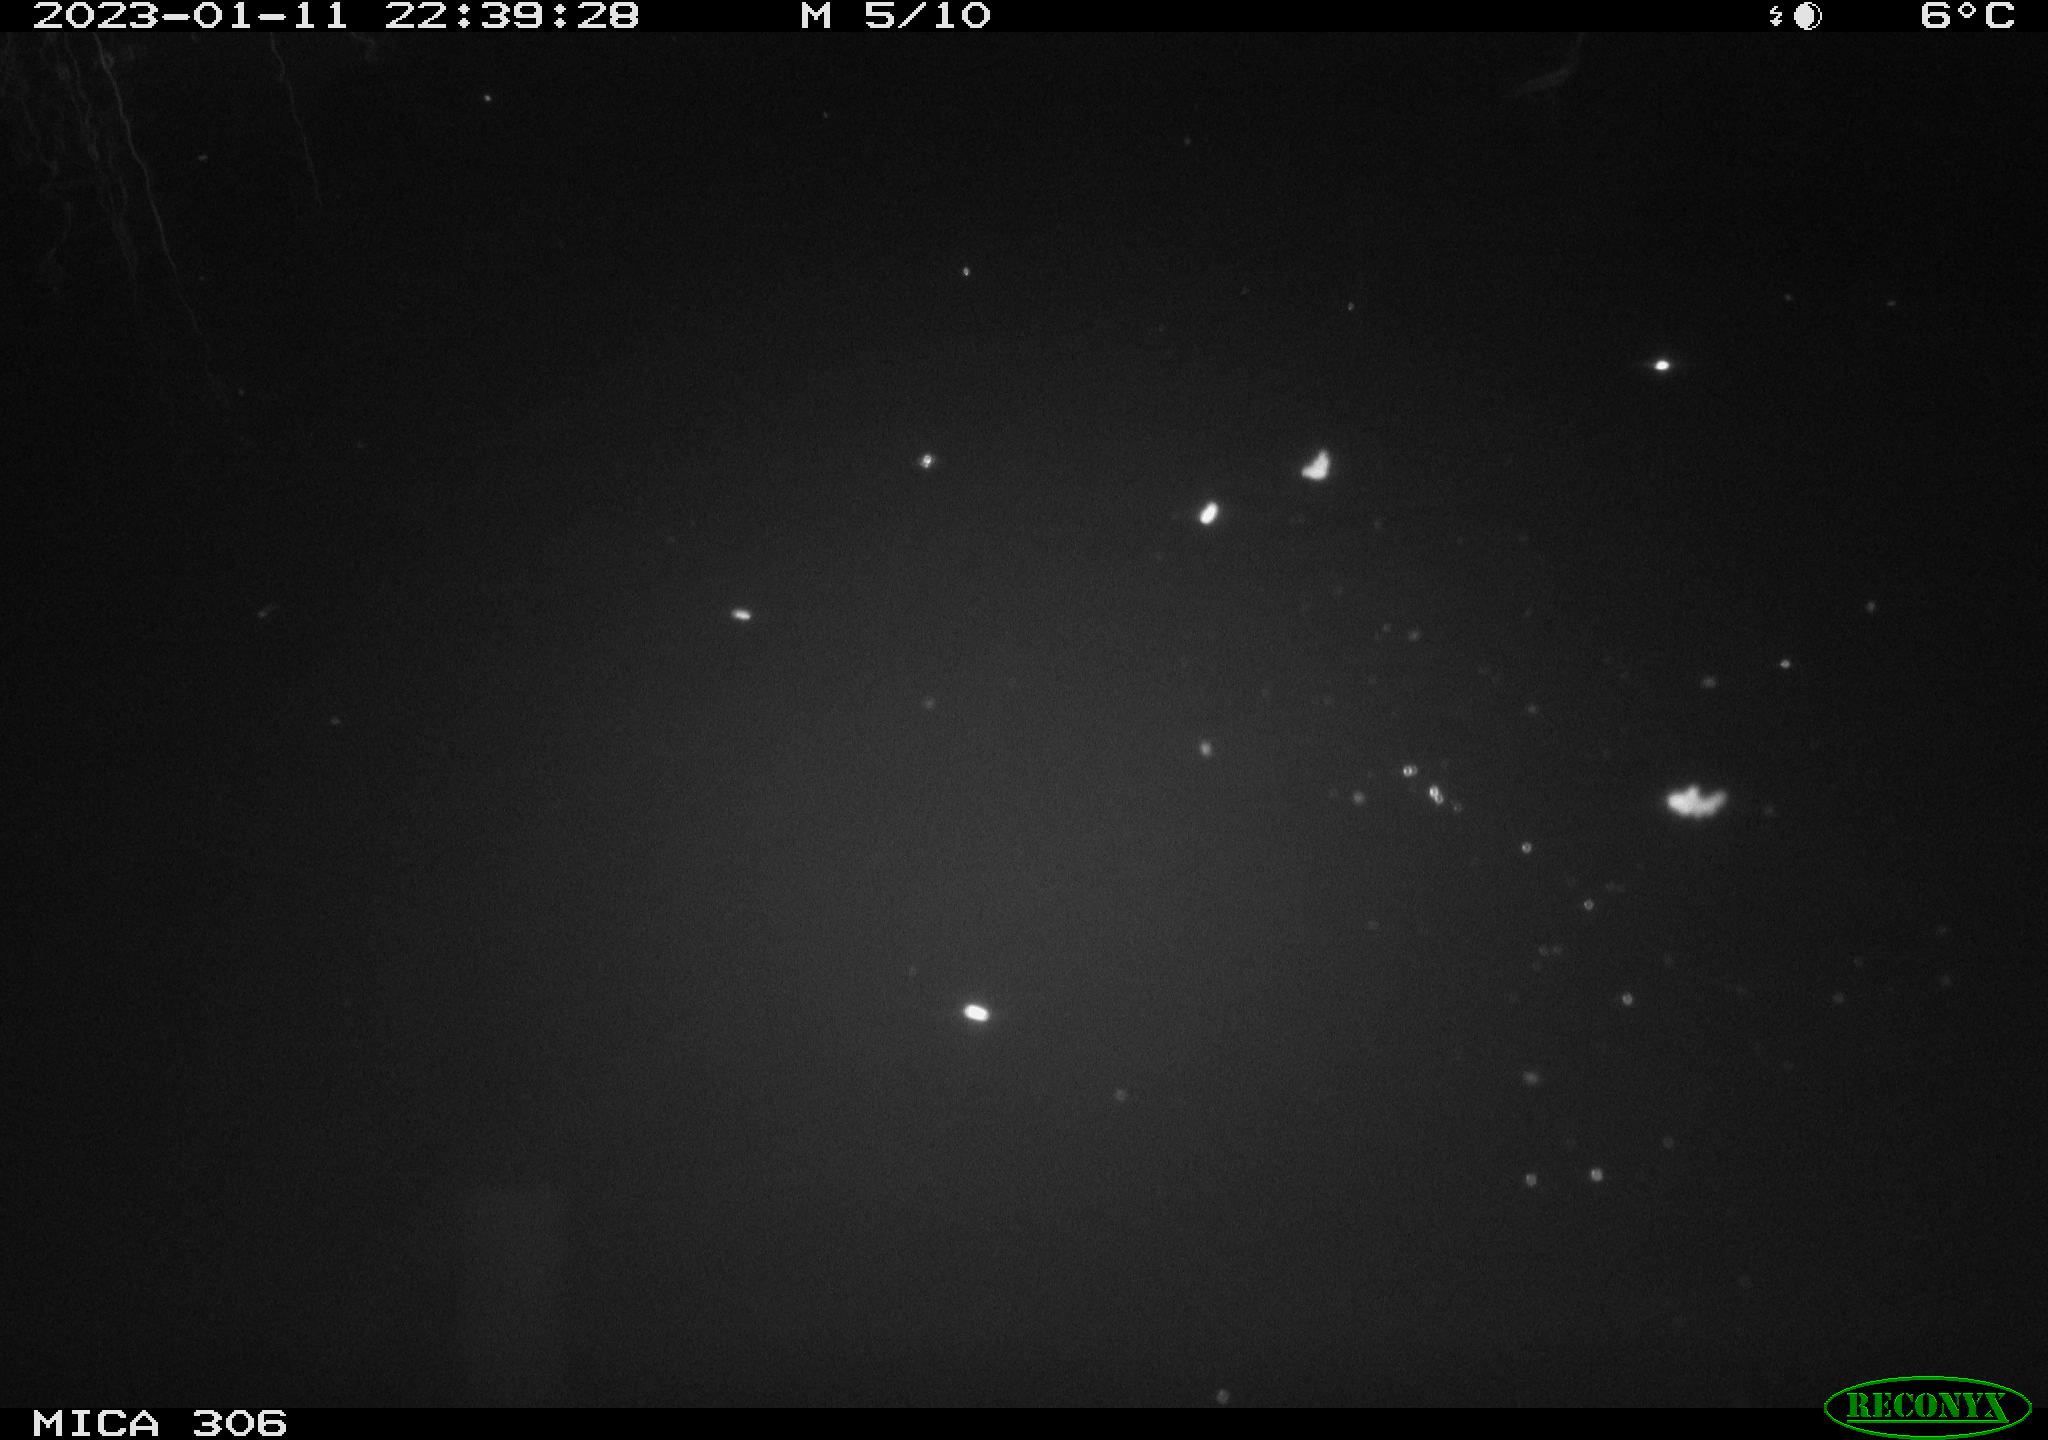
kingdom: Animalia
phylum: Chordata
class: Mammalia
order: Rodentia
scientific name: Rodentia
